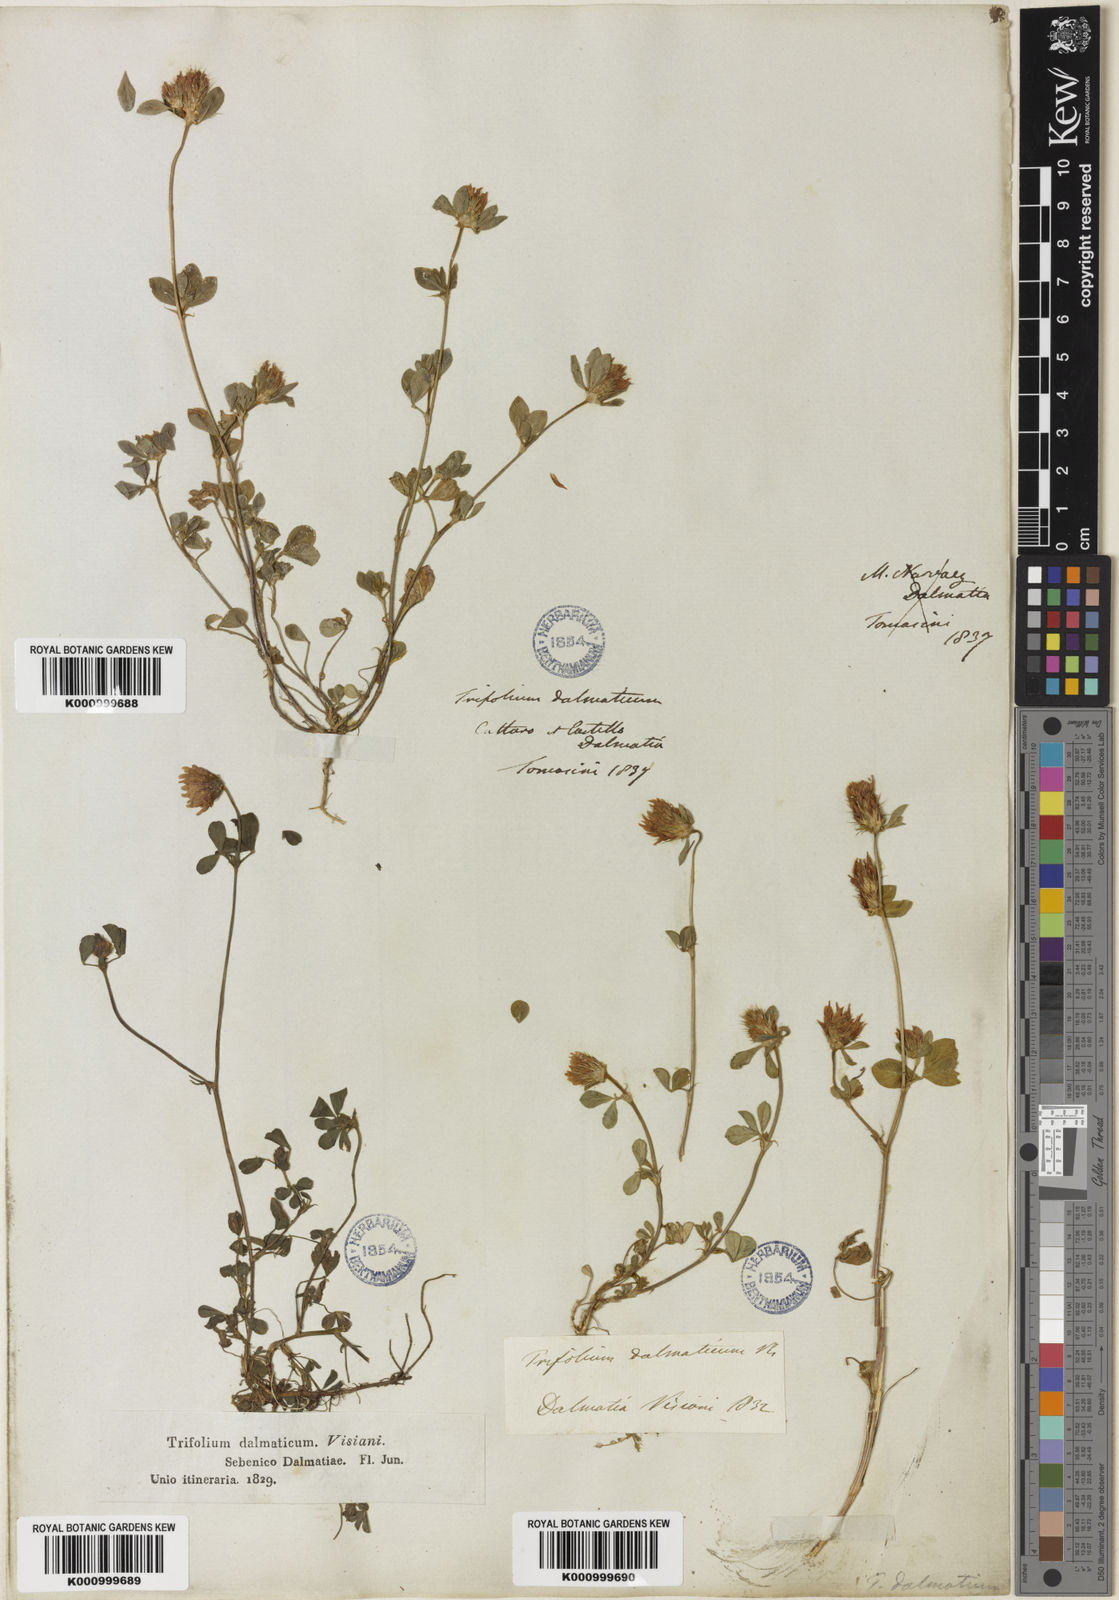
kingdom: Plantae
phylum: Tracheophyta
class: Magnoliopsida
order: Fabales
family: Fabaceae
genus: Trifolium
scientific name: Trifolium dalmaticum
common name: Dalmatian clover
